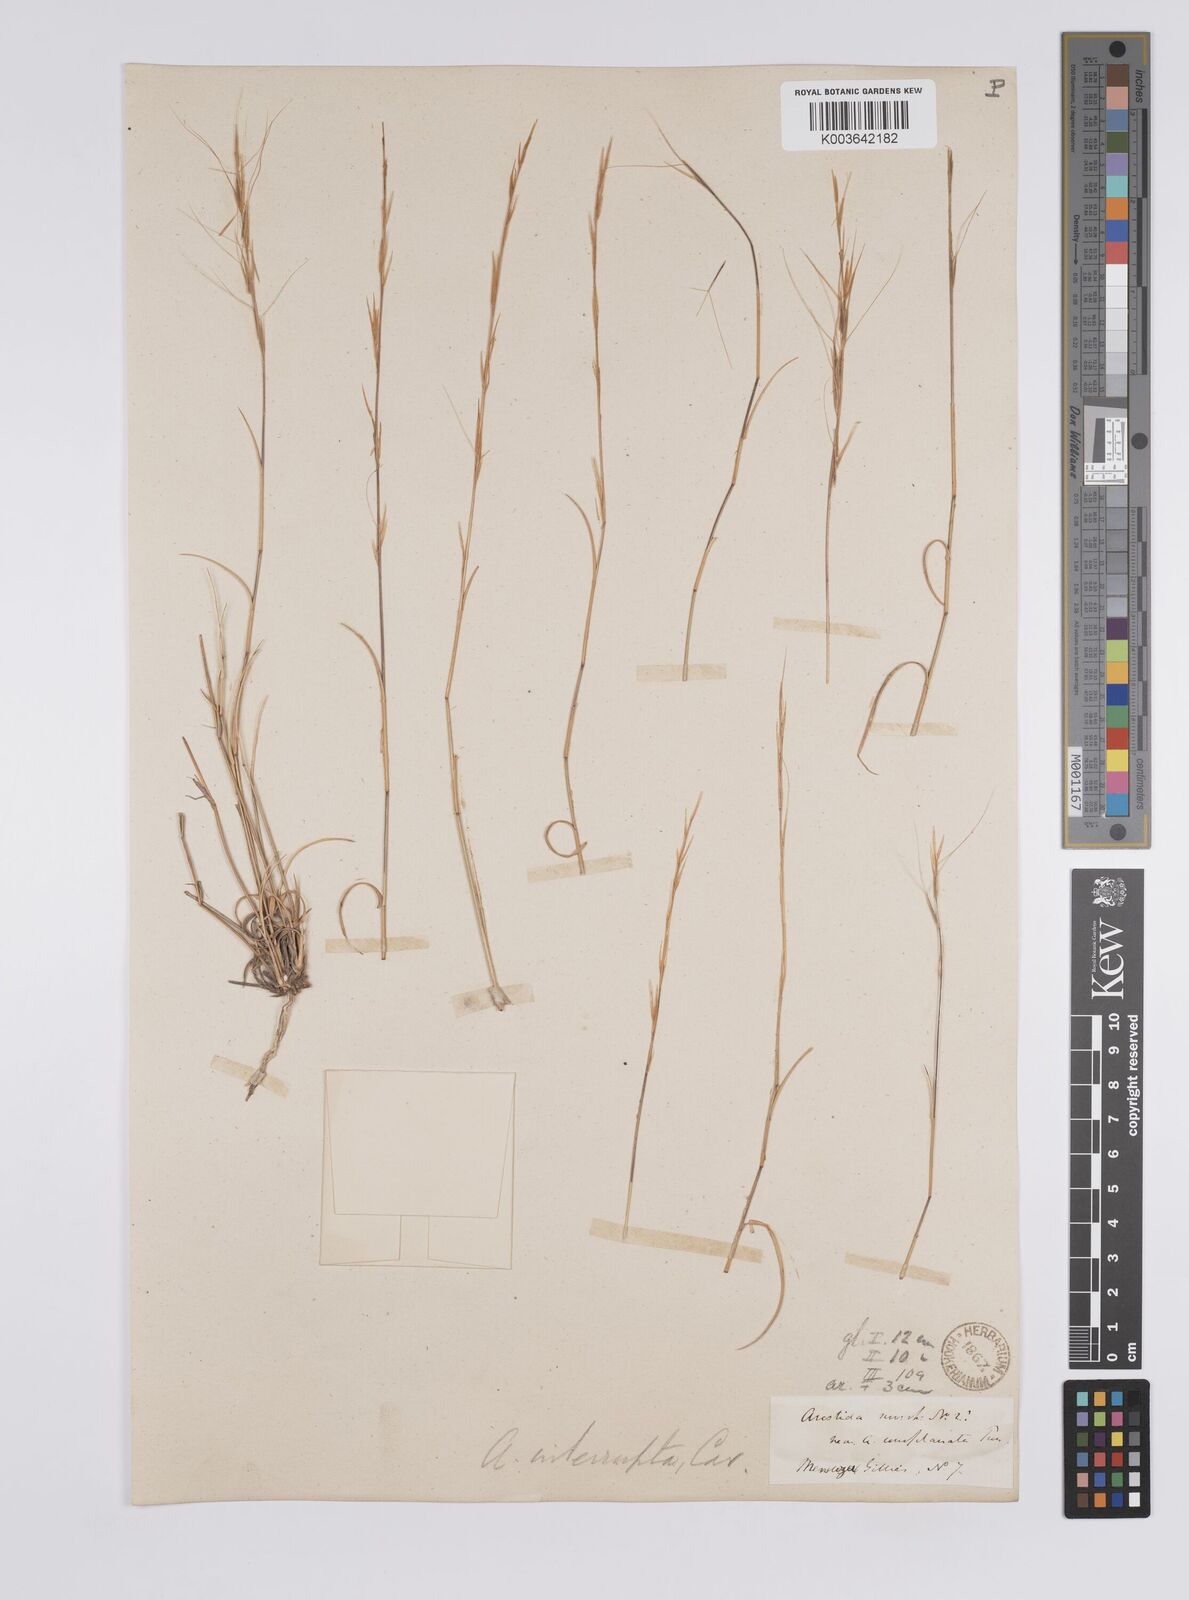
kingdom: Plantae
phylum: Tracheophyta
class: Liliopsida
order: Poales
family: Poaceae
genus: Aristida
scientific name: Aristida
